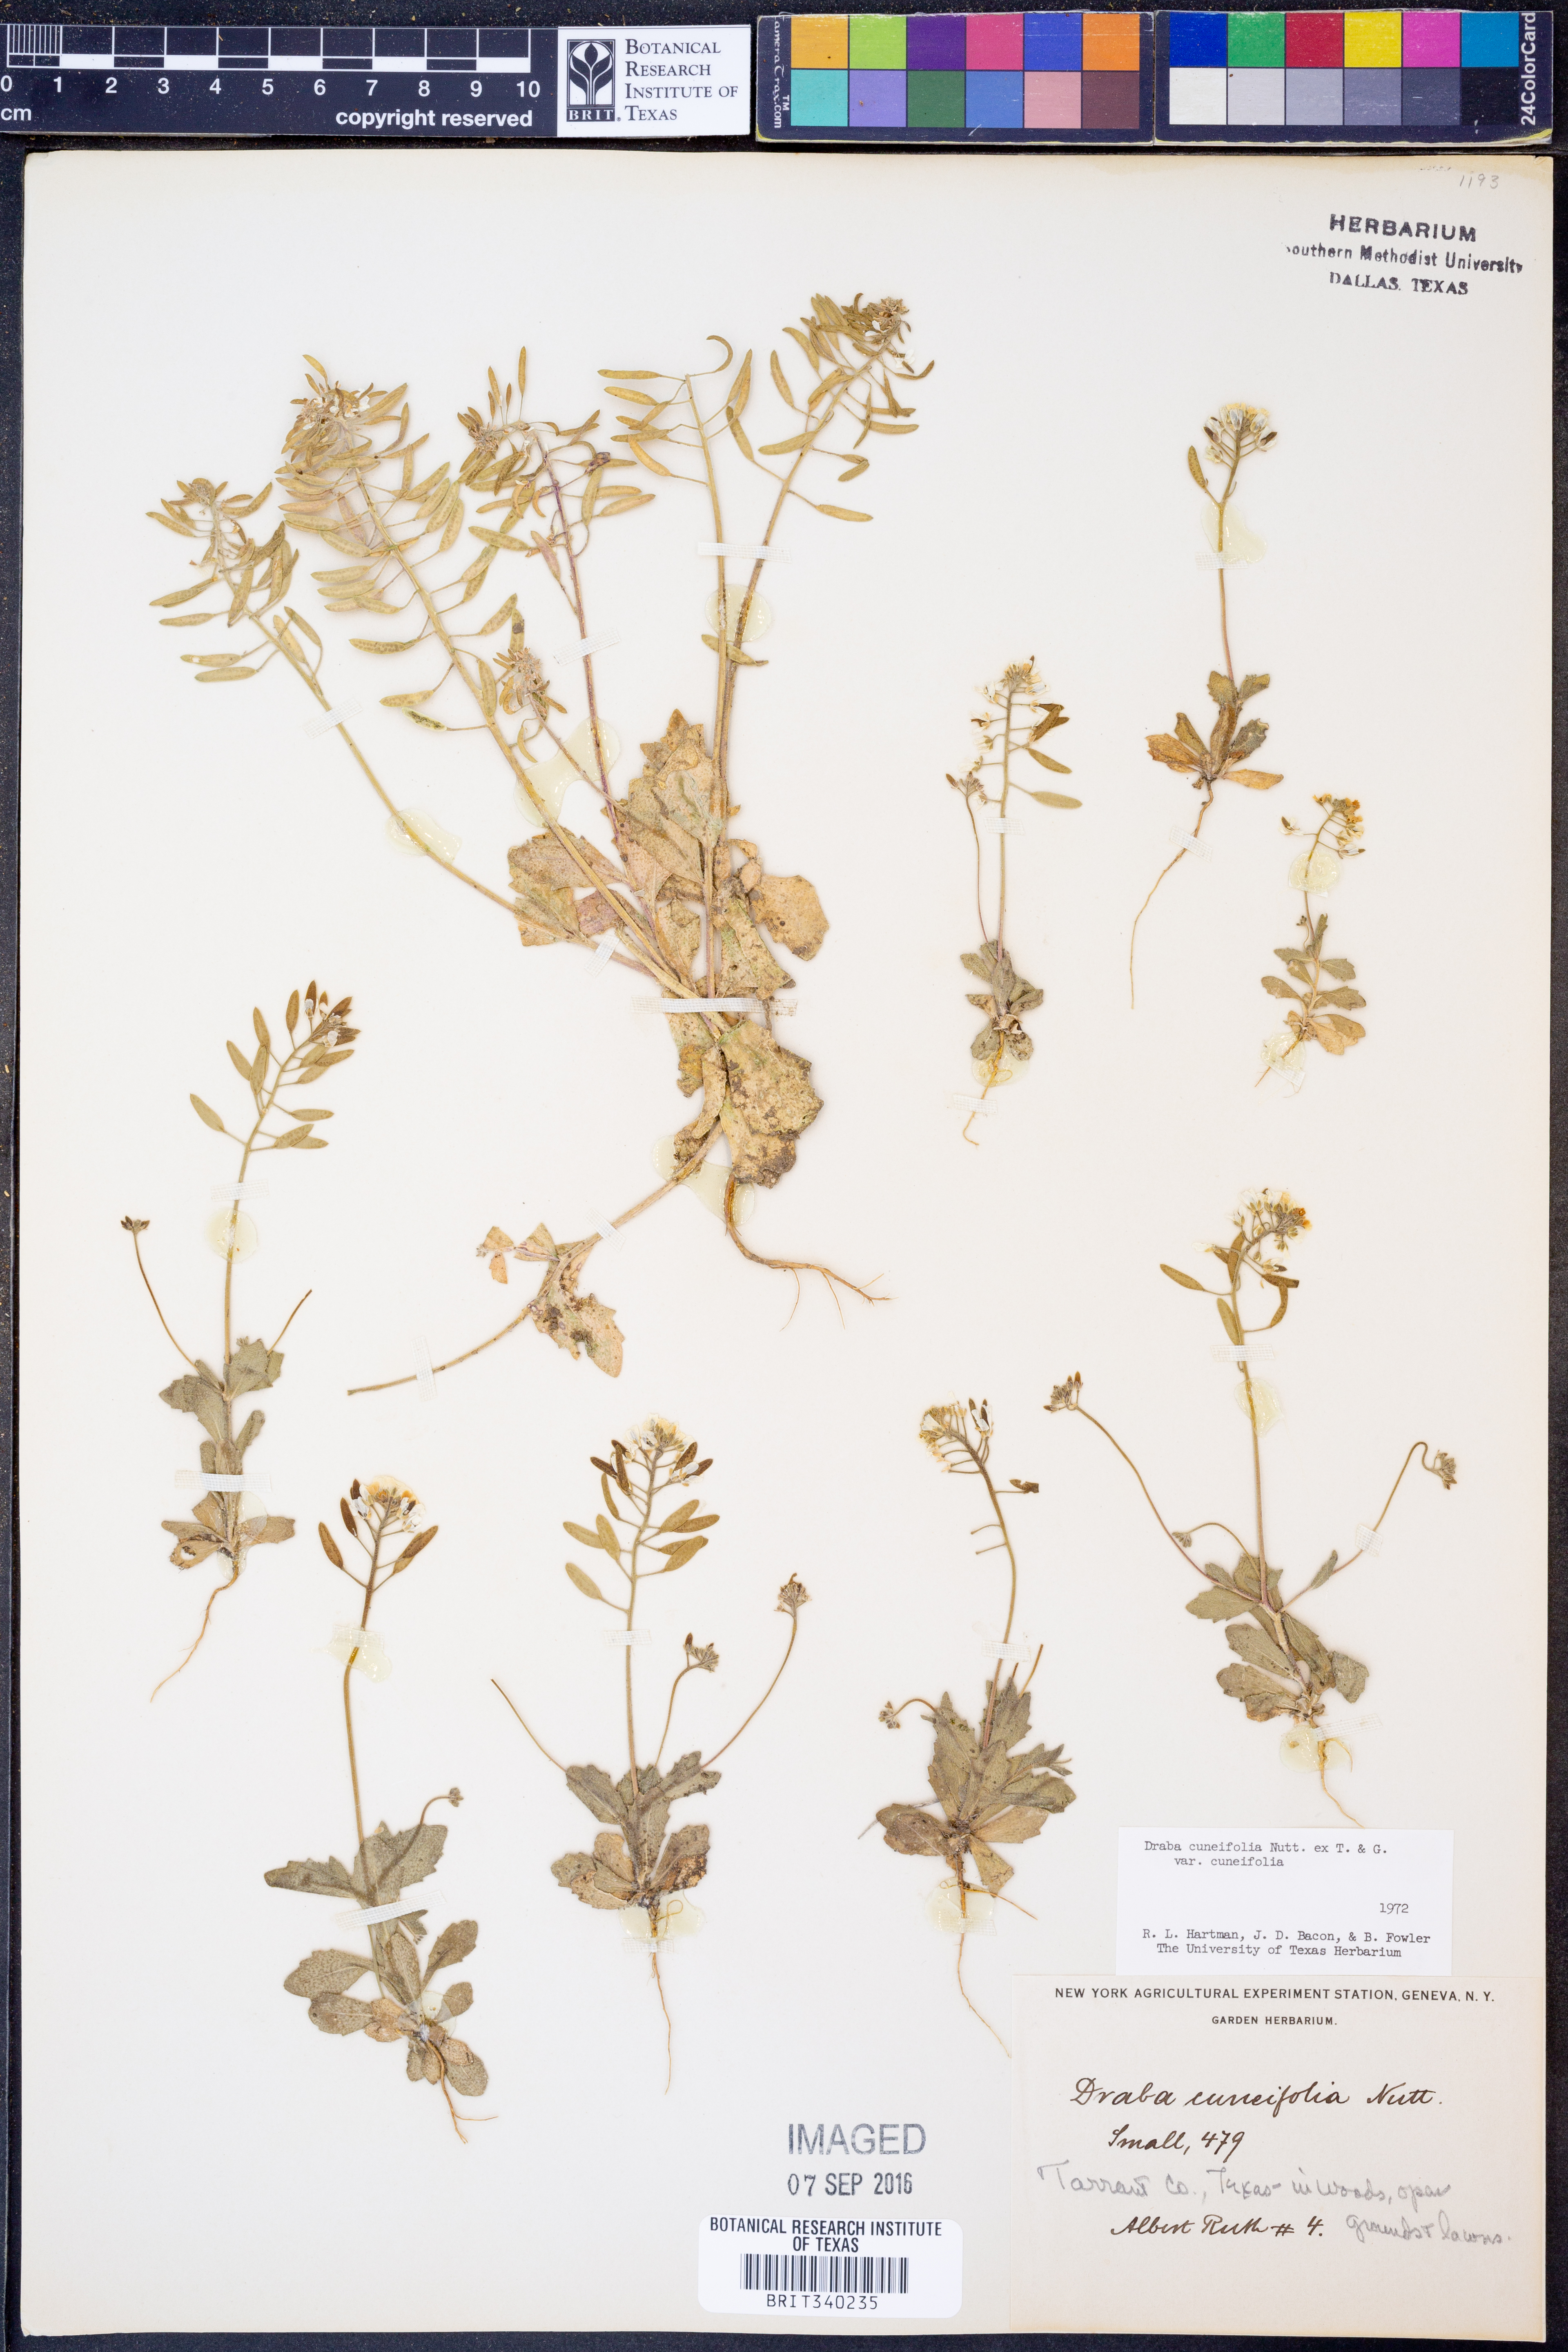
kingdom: Plantae
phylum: Tracheophyta
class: Magnoliopsida
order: Brassicales
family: Brassicaceae
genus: Tomostima
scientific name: Tomostima cuneifolia
